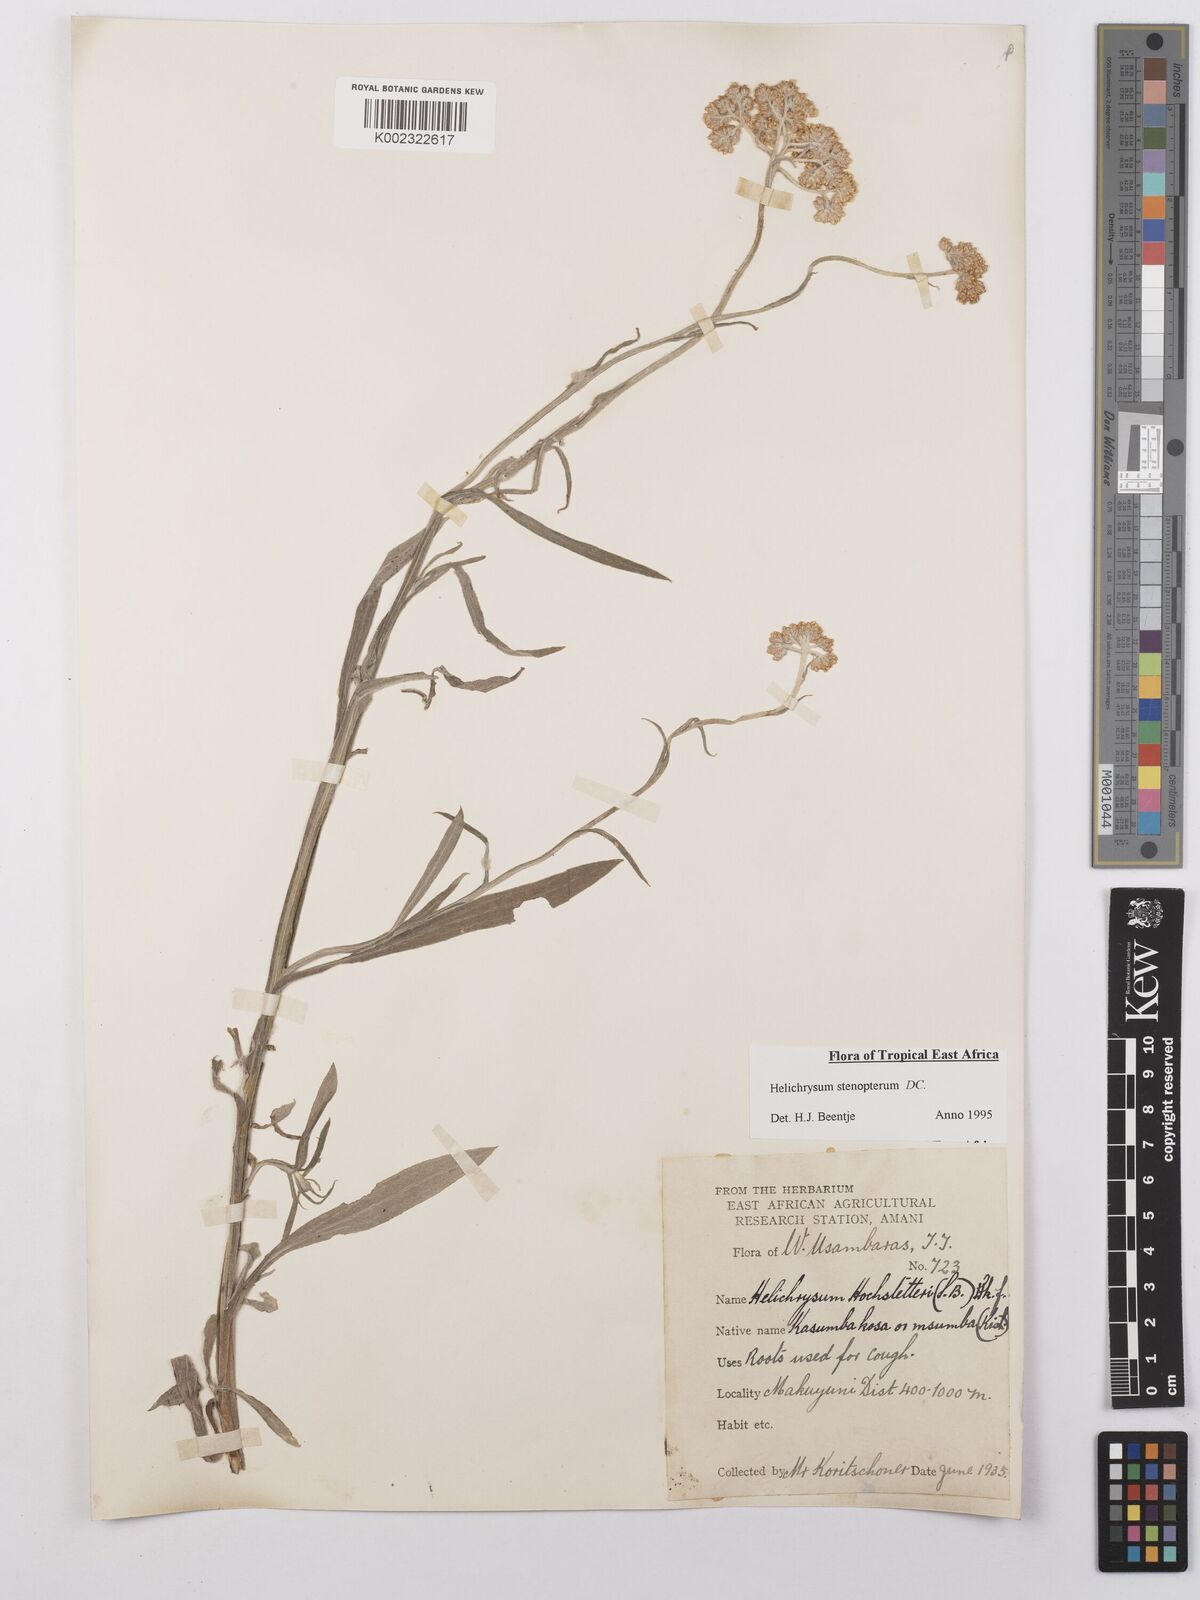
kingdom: Plantae
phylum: Tracheophyta
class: Magnoliopsida
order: Asterales
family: Asteraceae
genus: Helichrysum
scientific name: Helichrysum stenopterum
